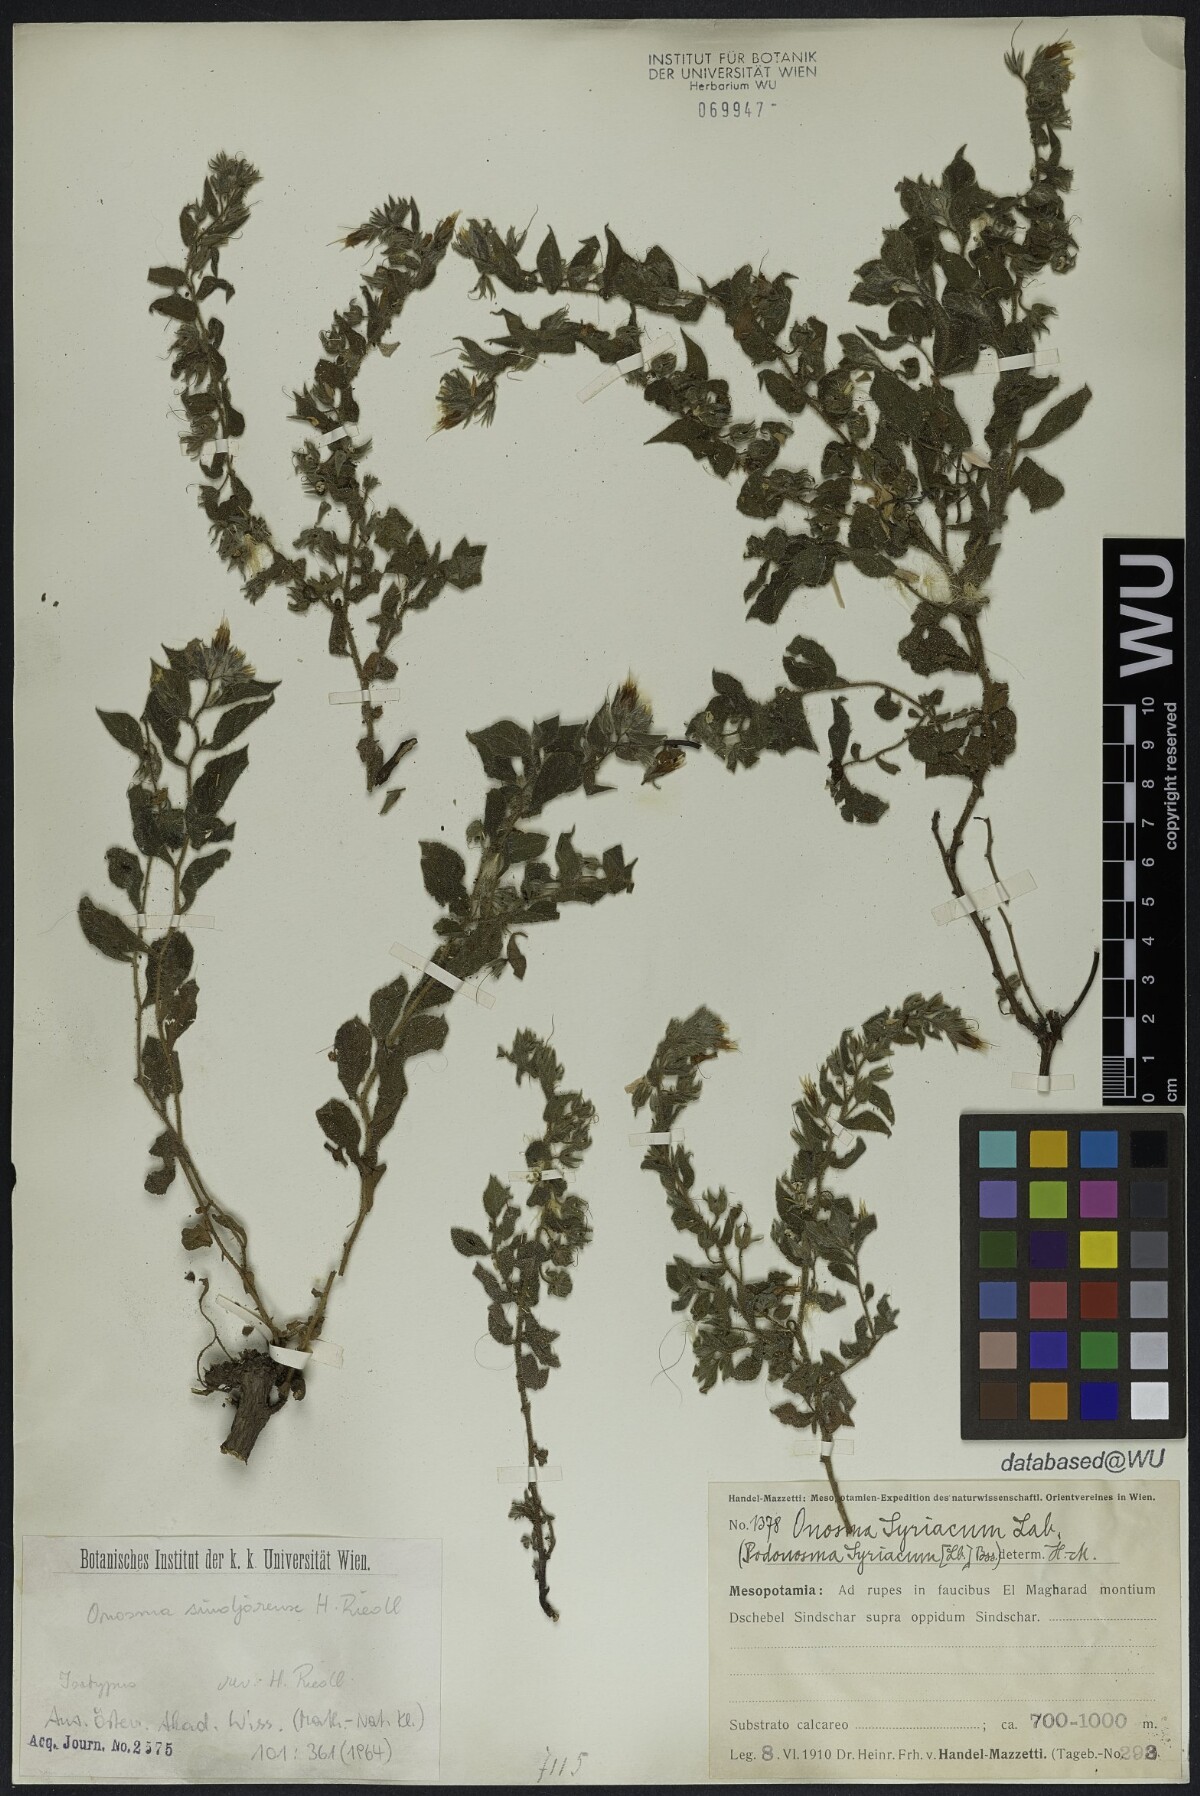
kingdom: Plantae
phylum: Tracheophyta
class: Magnoliopsida
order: Boraginales
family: Boraginaceae
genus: Podonosma
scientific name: Podonosma sindjarensis
